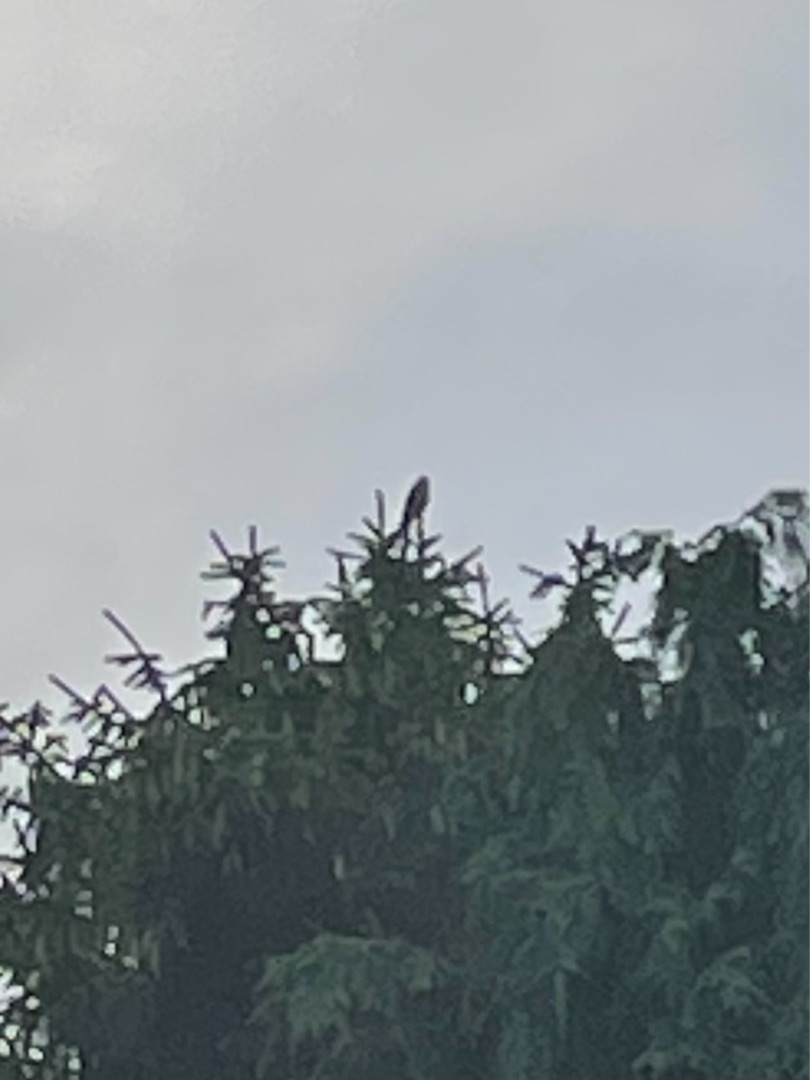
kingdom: Animalia
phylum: Chordata
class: Aves
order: Falconiformes
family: Falconidae
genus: Falco
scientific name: Falco tinnunculus
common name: Tårnfalk
